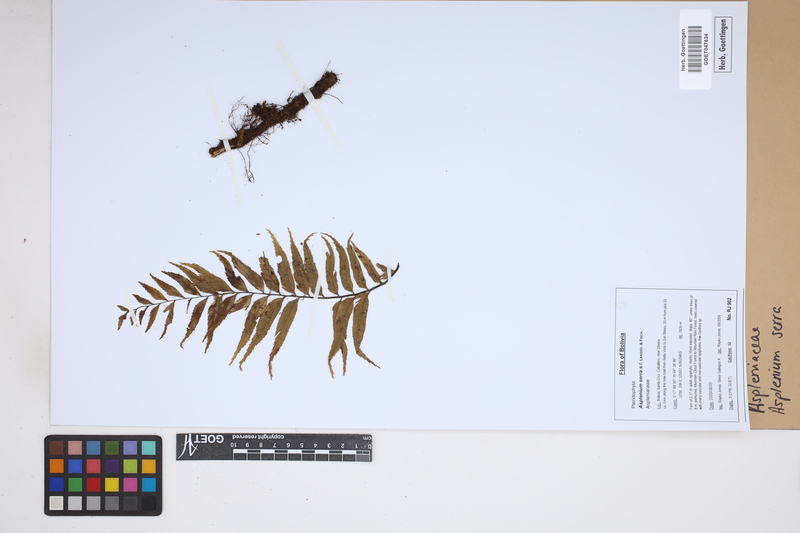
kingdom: Plantae
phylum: Tracheophyta
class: Polypodiopsida
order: Polypodiales
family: Aspleniaceae
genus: Asplenium
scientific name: Asplenium serra
